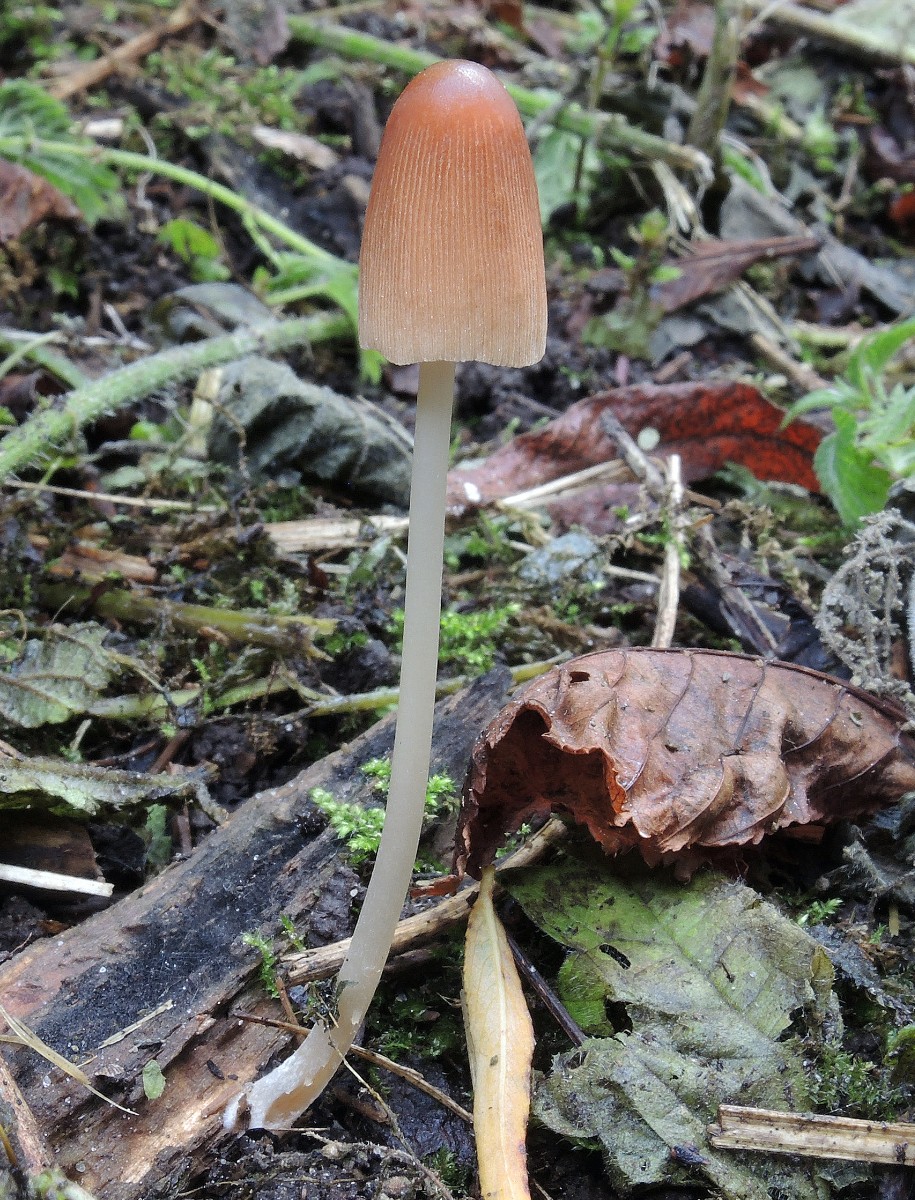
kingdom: Fungi
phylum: Basidiomycota
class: Agaricomycetes
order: Agaricales
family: Psathyrellaceae
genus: Parasola
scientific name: Parasola auricoma
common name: hansens hjulhat
